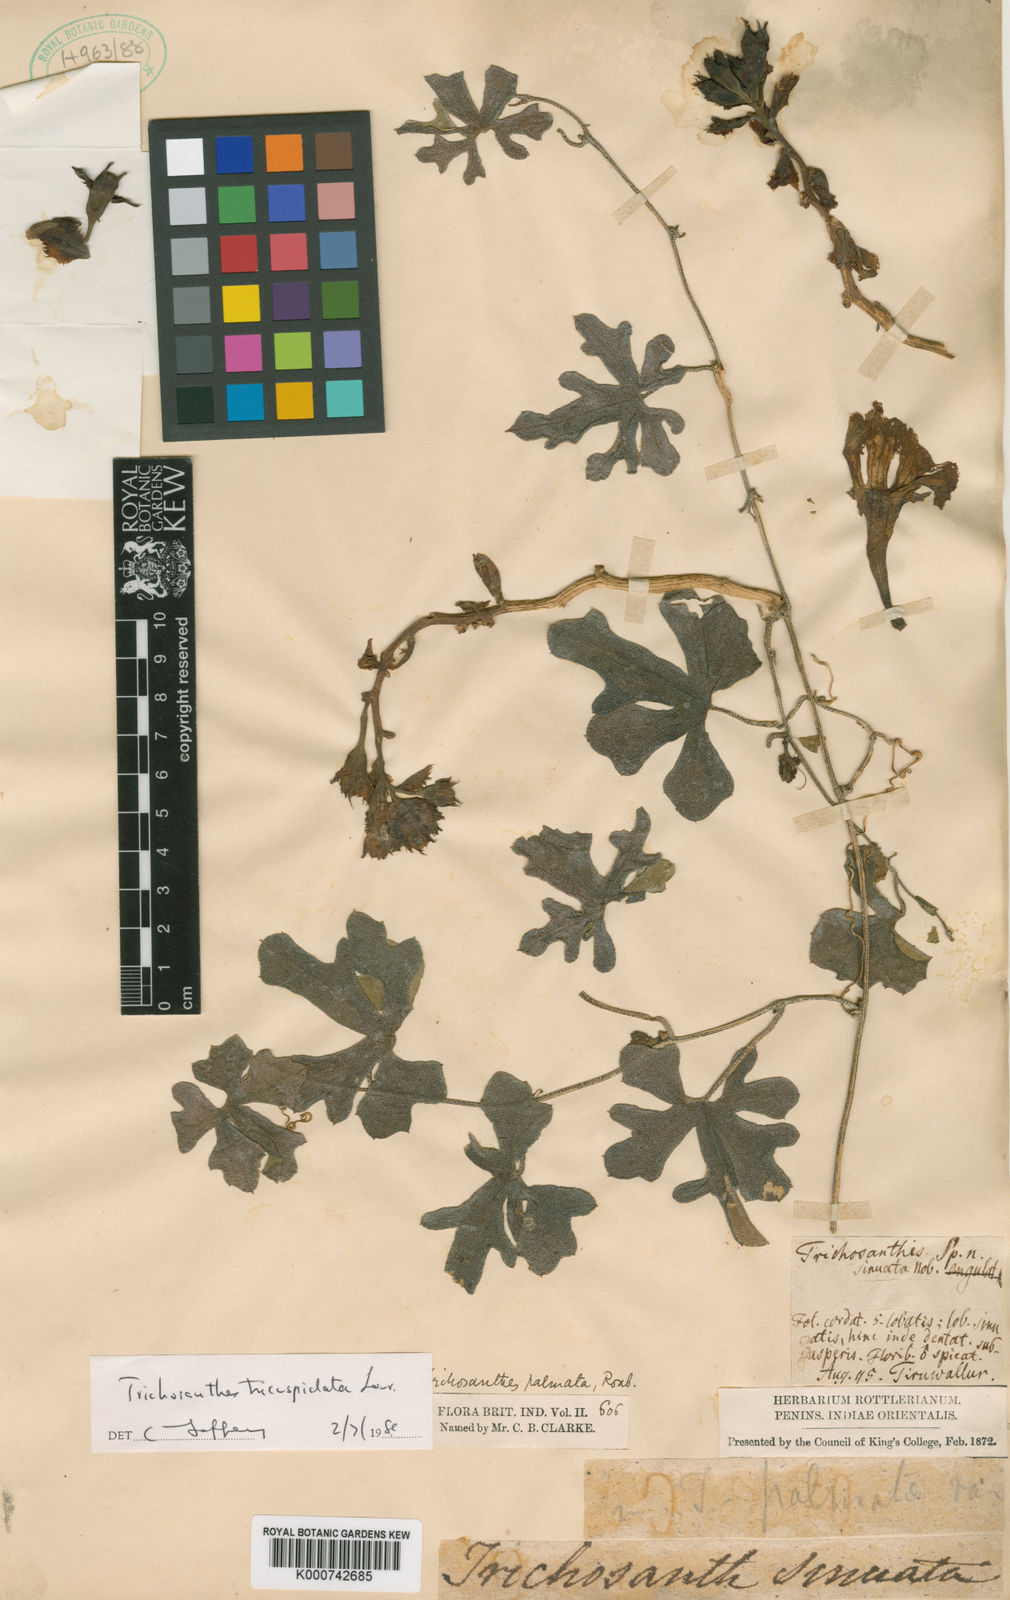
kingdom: Plantae
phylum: Tracheophyta
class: Magnoliopsida
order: Cucurbitales
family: Cucurbitaceae
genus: Trichosanthes
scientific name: Trichosanthes tricuspidata
